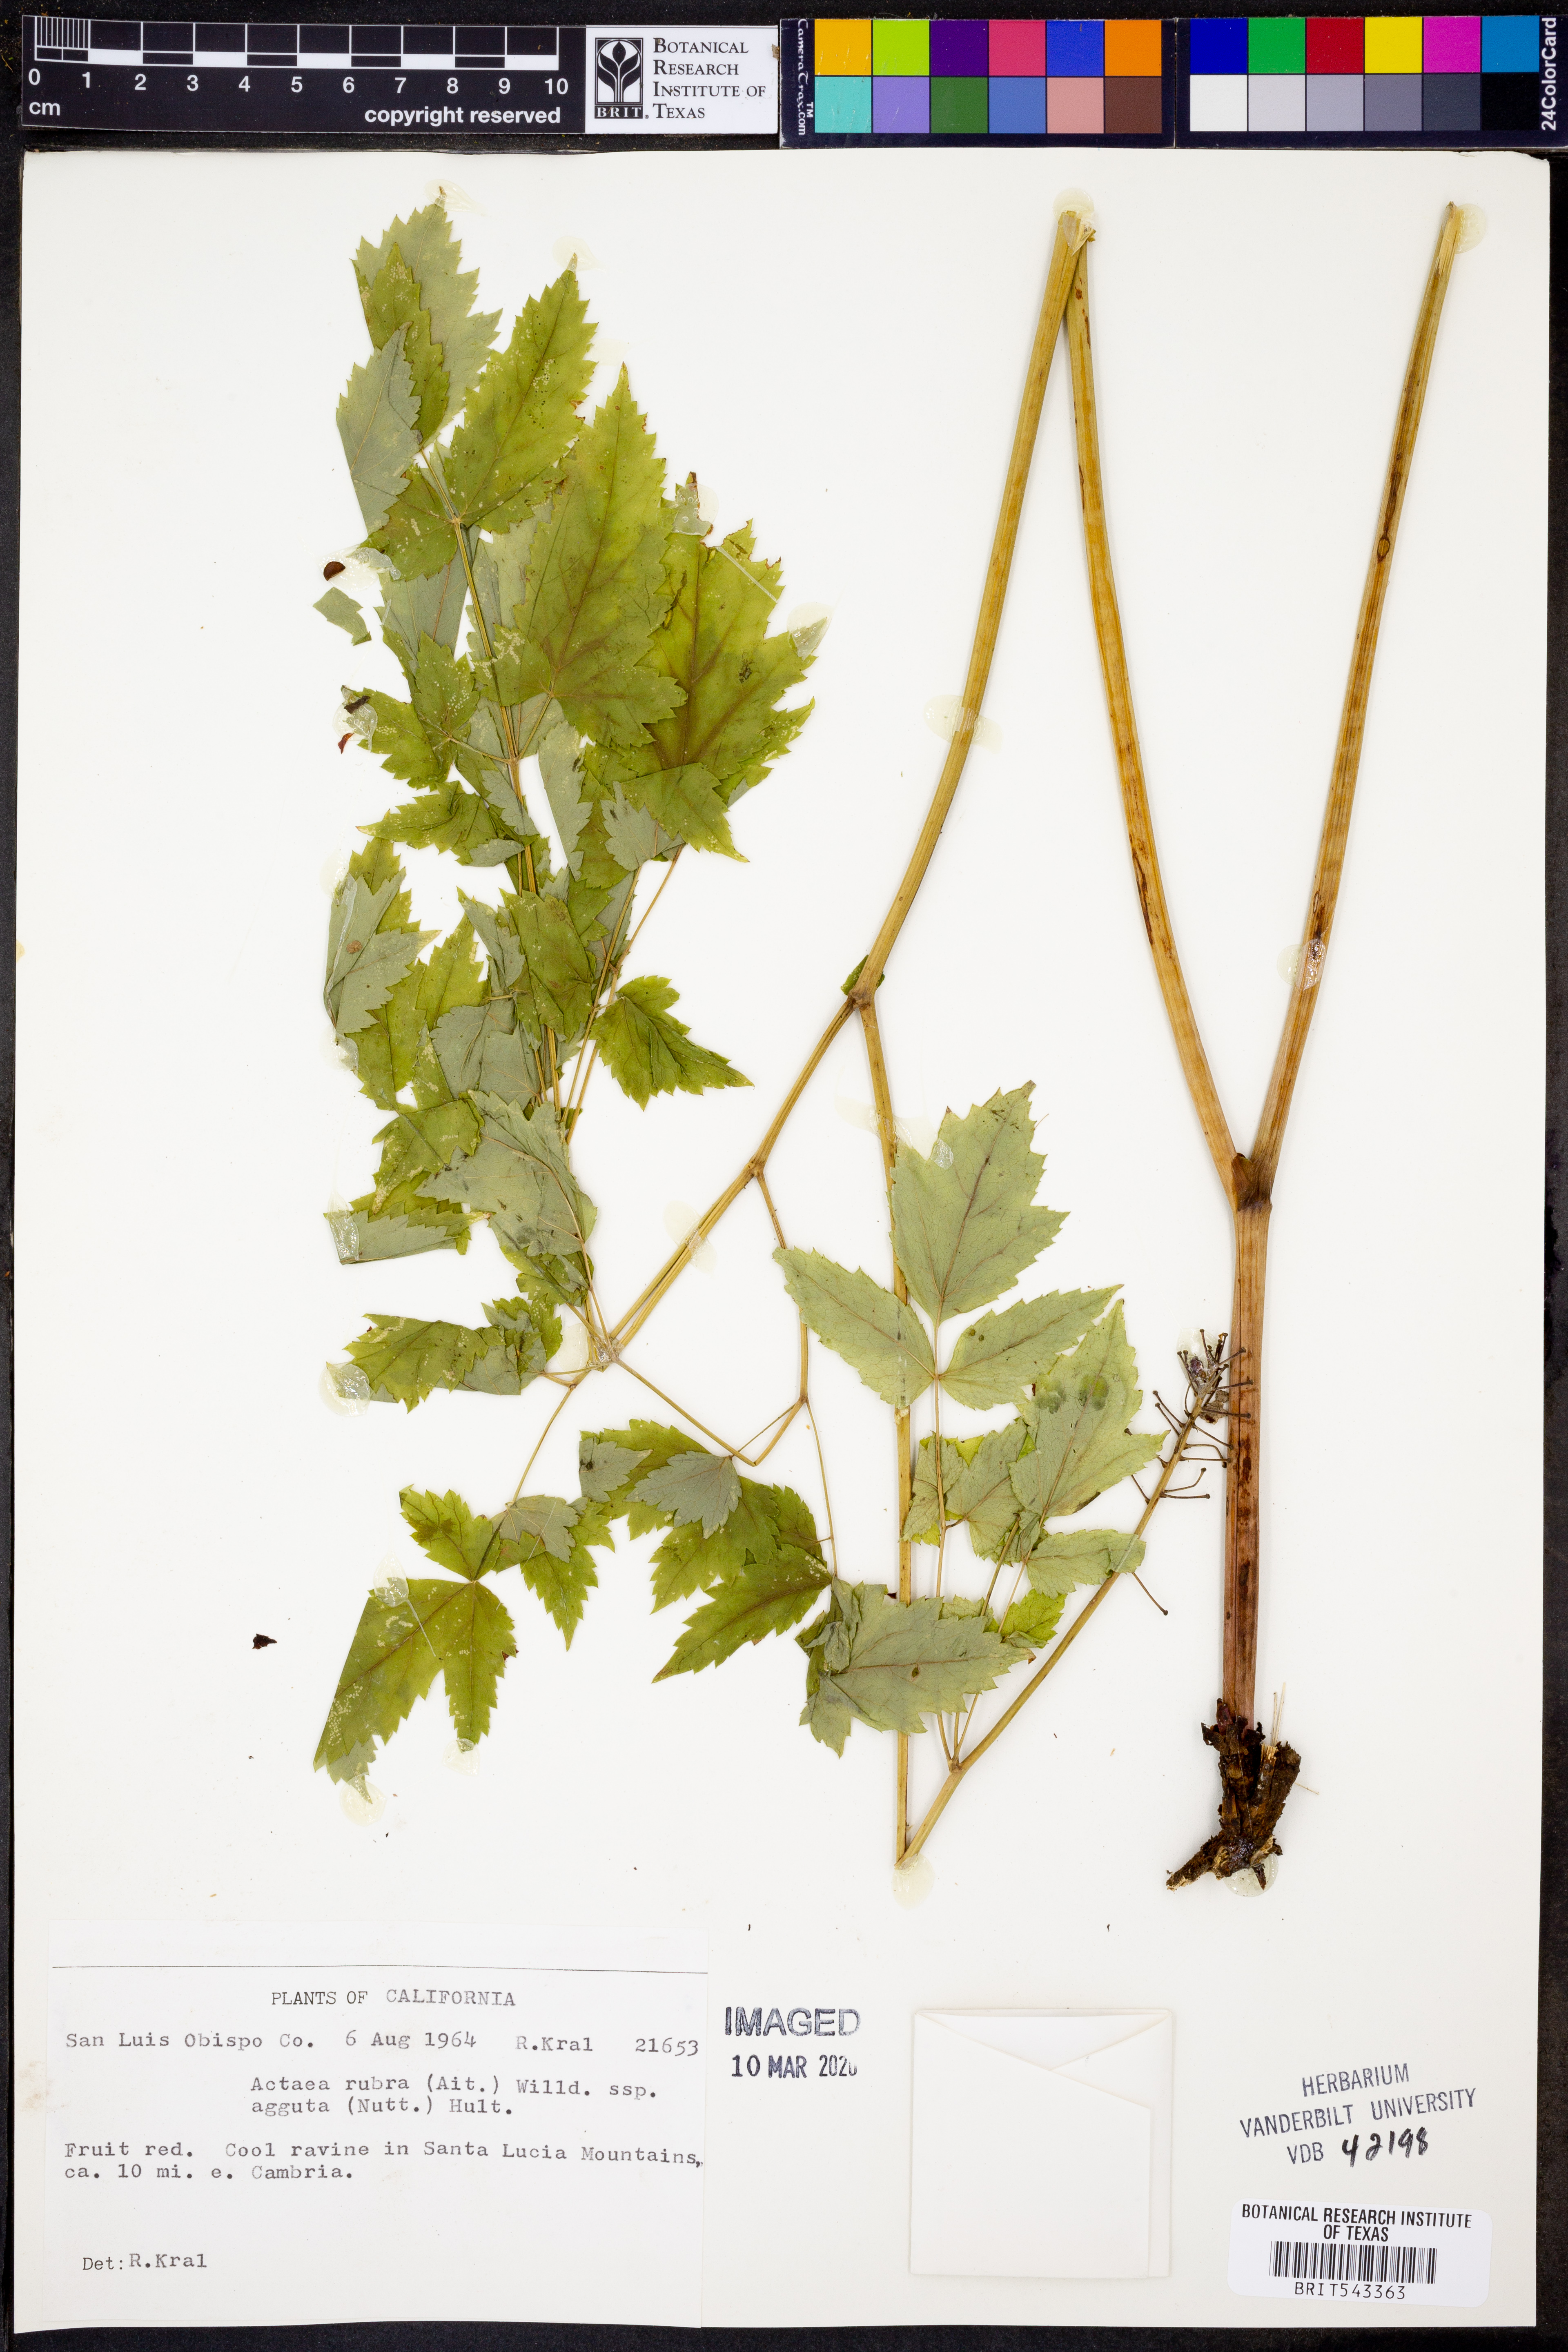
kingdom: Plantae
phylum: Tracheophyta
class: Magnoliopsida
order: Ranunculales
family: Ranunculaceae
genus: Actaea
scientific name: Actaea rubra
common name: Red baneberry
